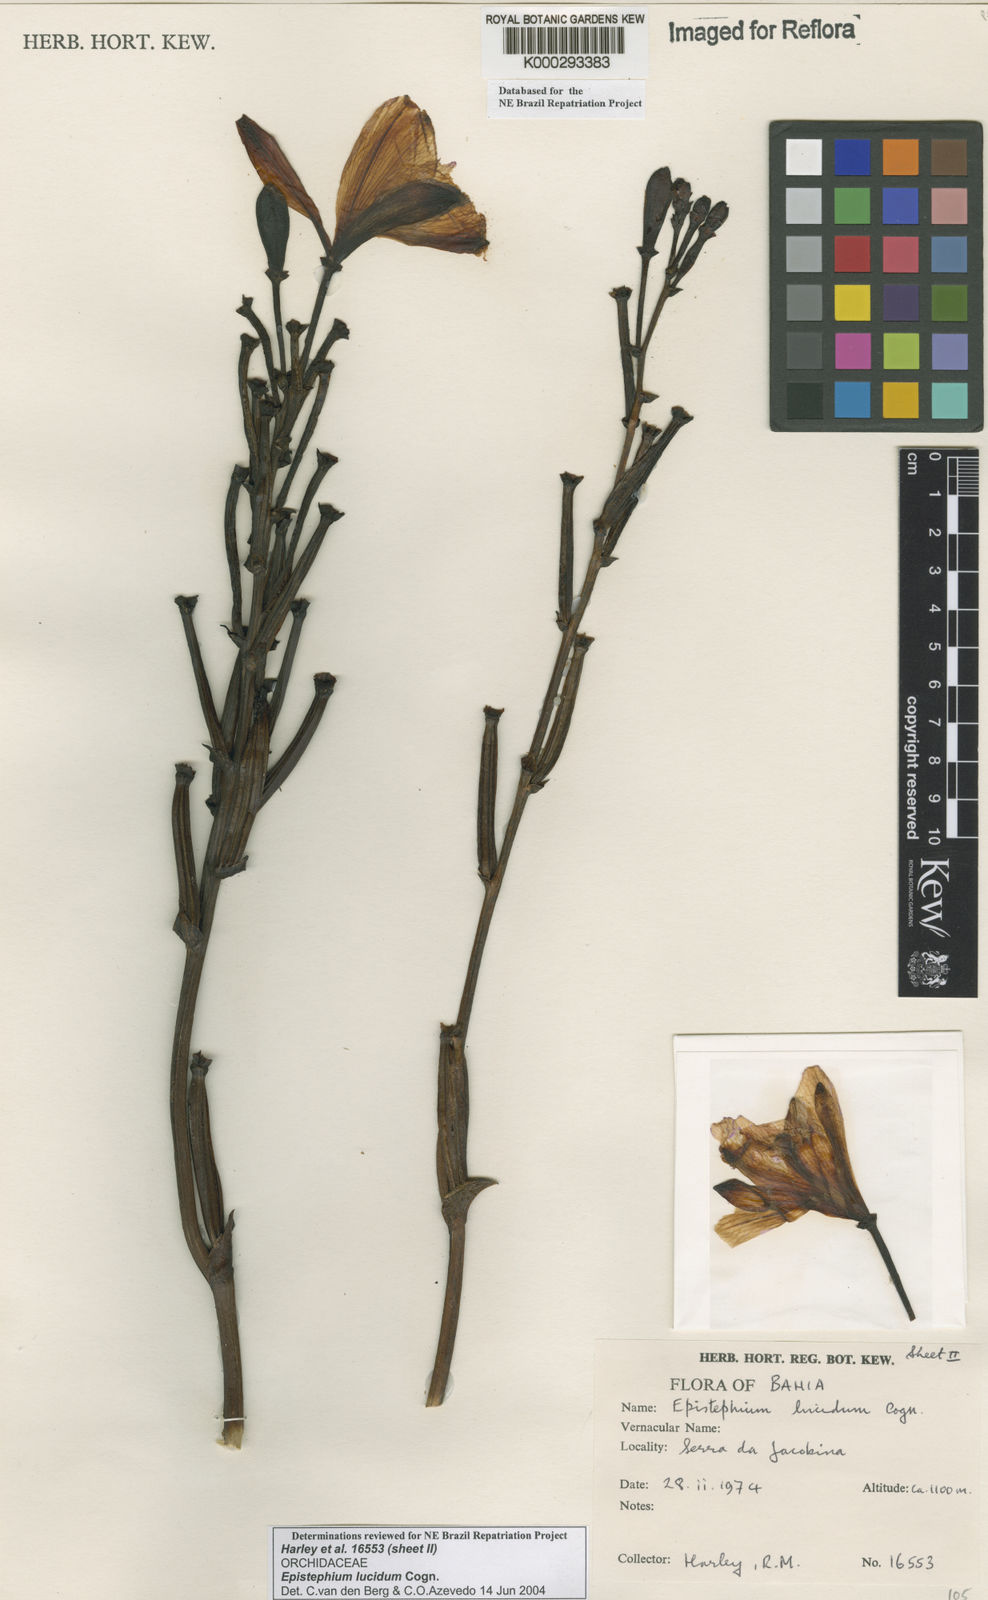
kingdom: Plantae
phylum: Tracheophyta
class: Liliopsida
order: Asparagales
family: Orchidaceae
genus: Epistephium
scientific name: Epistephium williamsii
